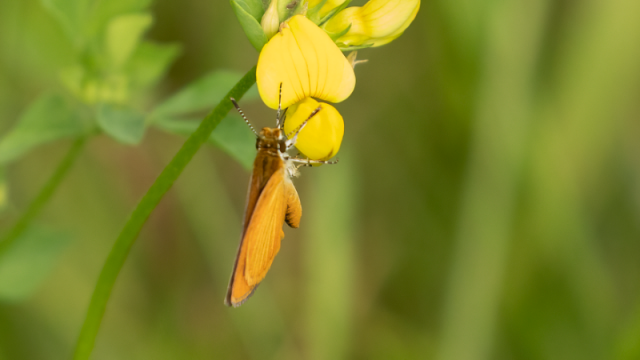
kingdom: Animalia
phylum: Arthropoda
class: Insecta
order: Lepidoptera
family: Hesperiidae
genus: Ancyloxypha
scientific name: Ancyloxypha numitor
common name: Least Skipper
